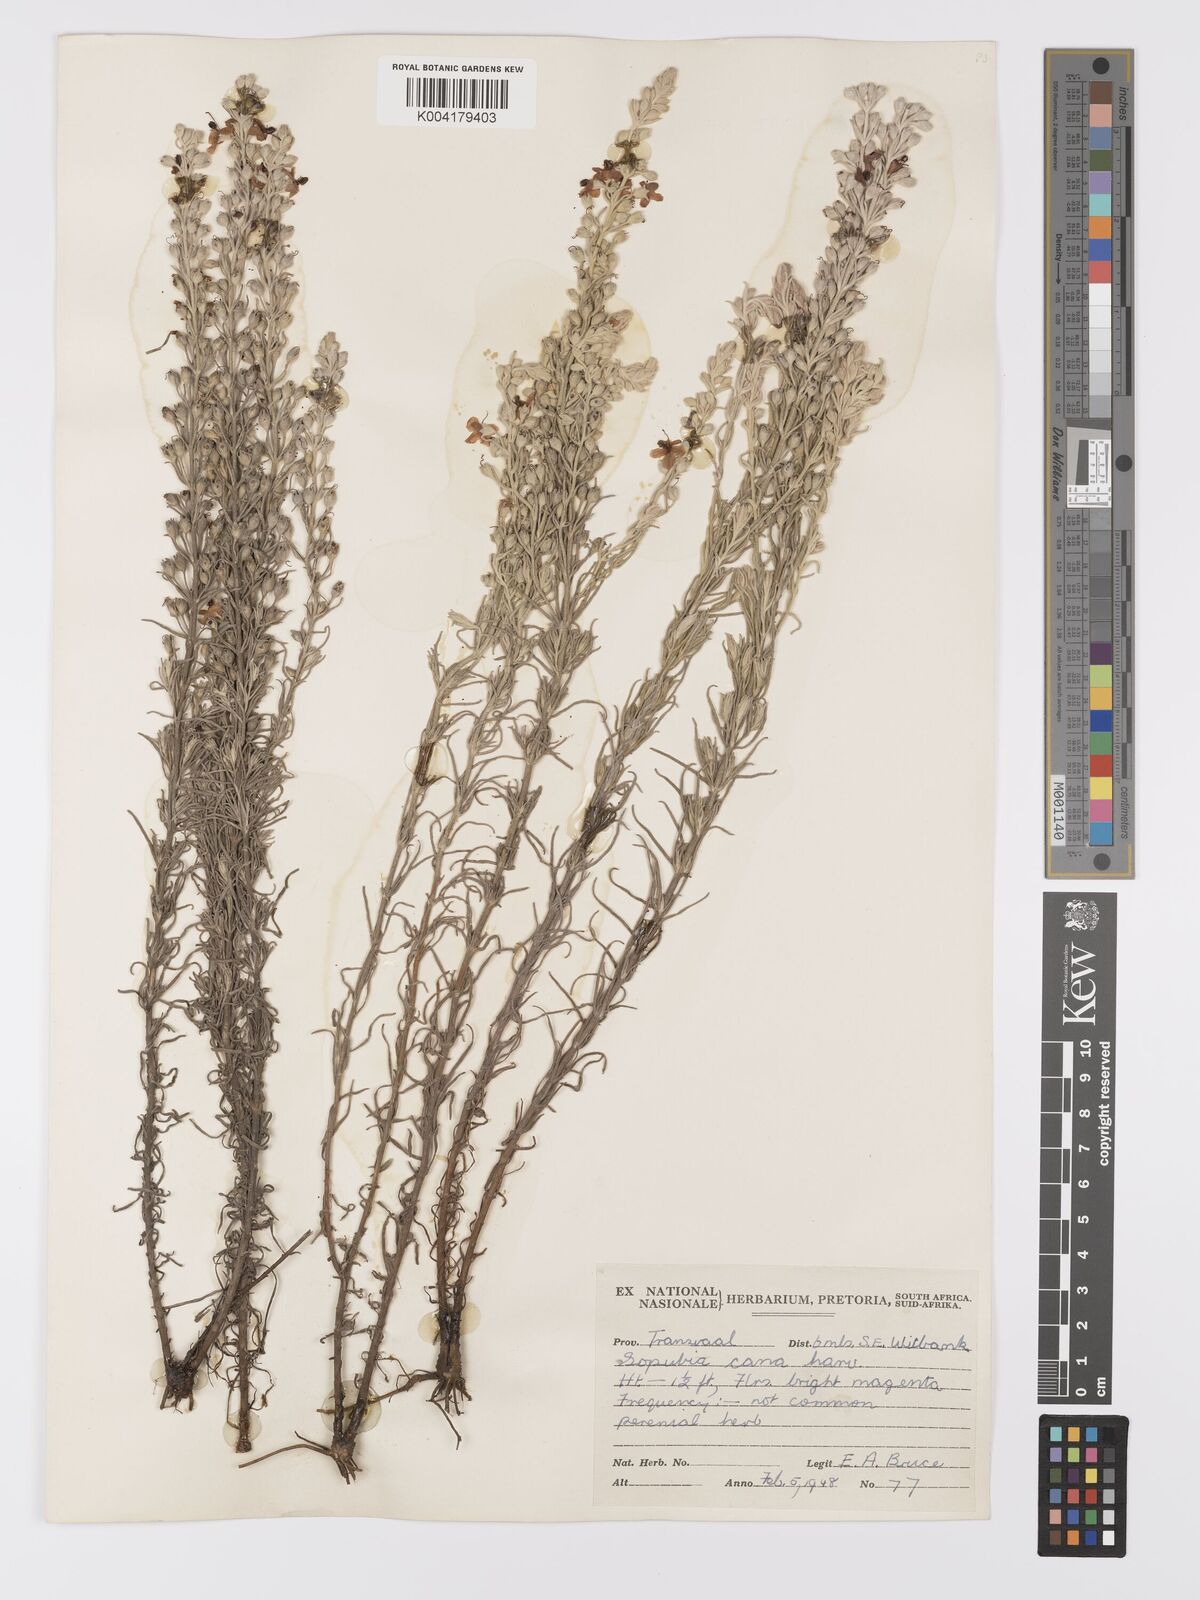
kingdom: Plantae
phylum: Tracheophyta
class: Magnoliopsida
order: Lamiales
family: Orobanchaceae
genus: Sopubia
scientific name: Sopubia cana
